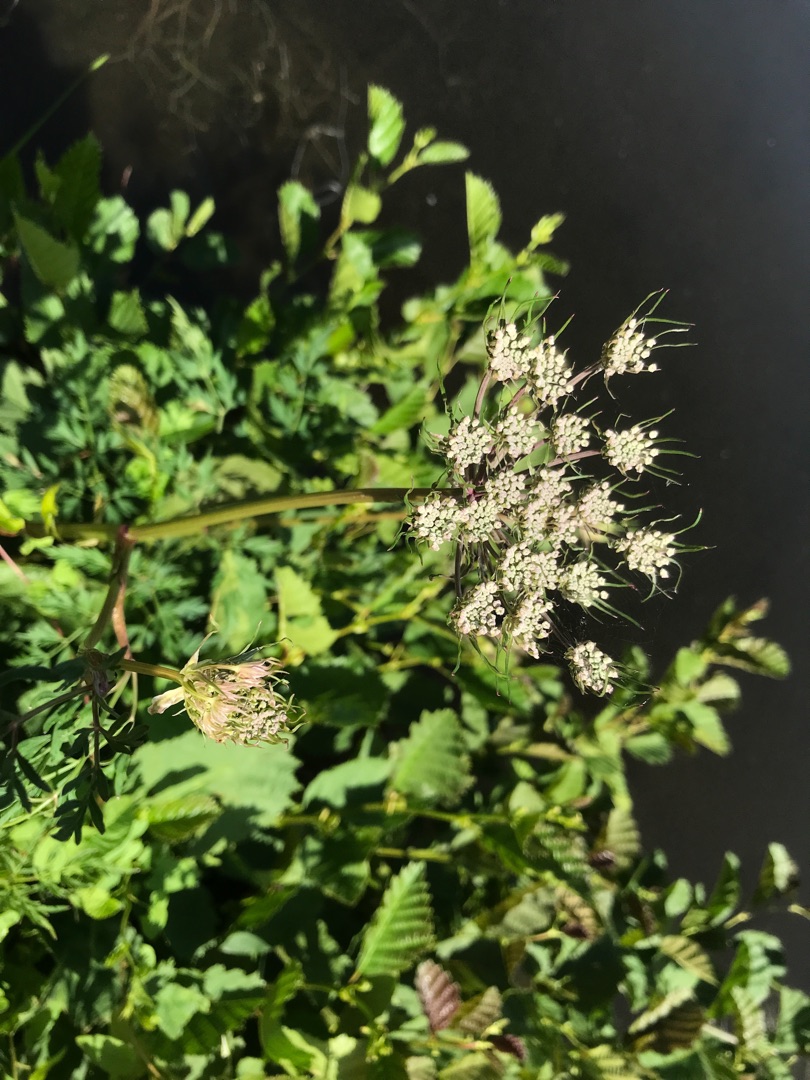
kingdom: Plantae
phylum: Tracheophyta
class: Magnoliopsida
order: Apiales
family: Apiaceae
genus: Thysselinum
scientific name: Thysselinum palustre
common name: Kær-svovlrod
